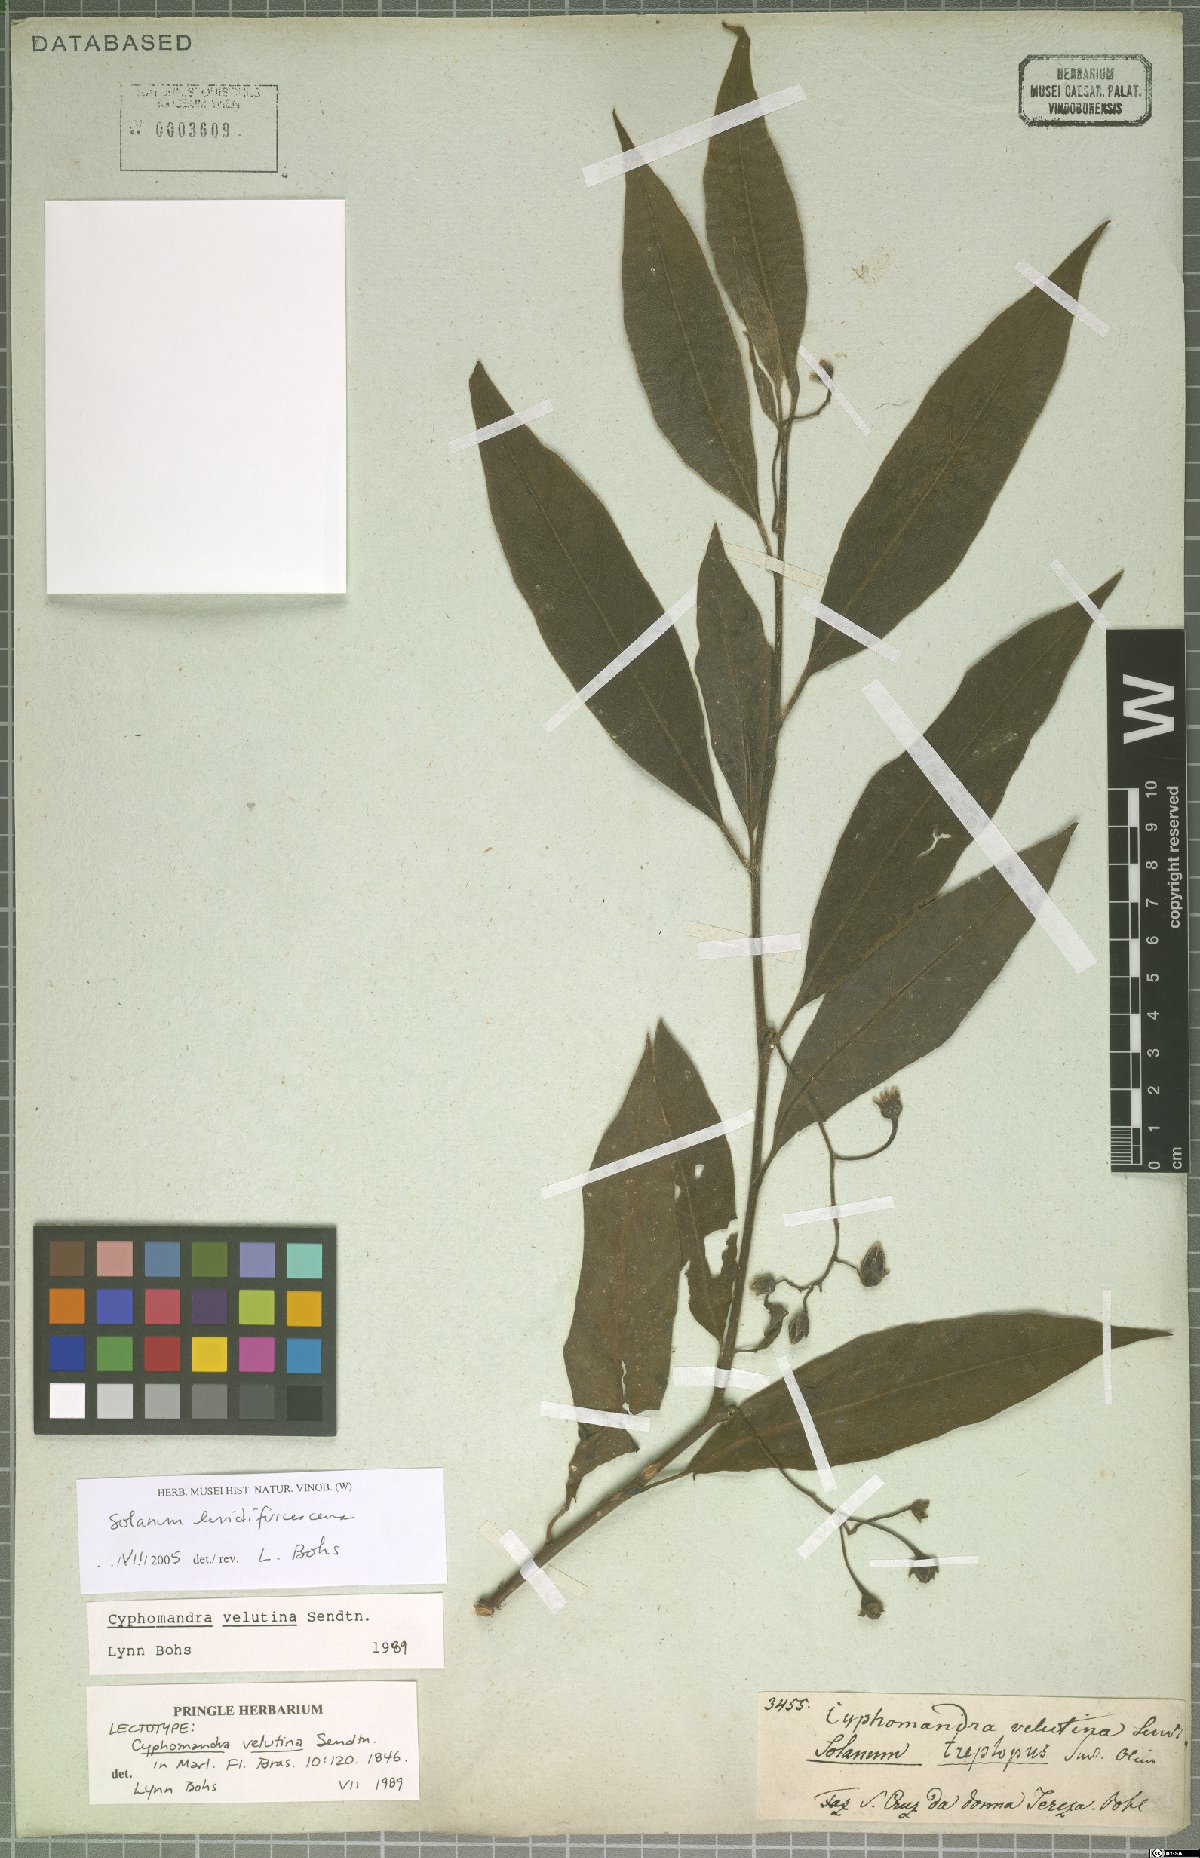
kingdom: Plantae
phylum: Tracheophyta
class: Magnoliopsida
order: Solanales
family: Solanaceae
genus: Solanum
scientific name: Solanum luridifuscescens
